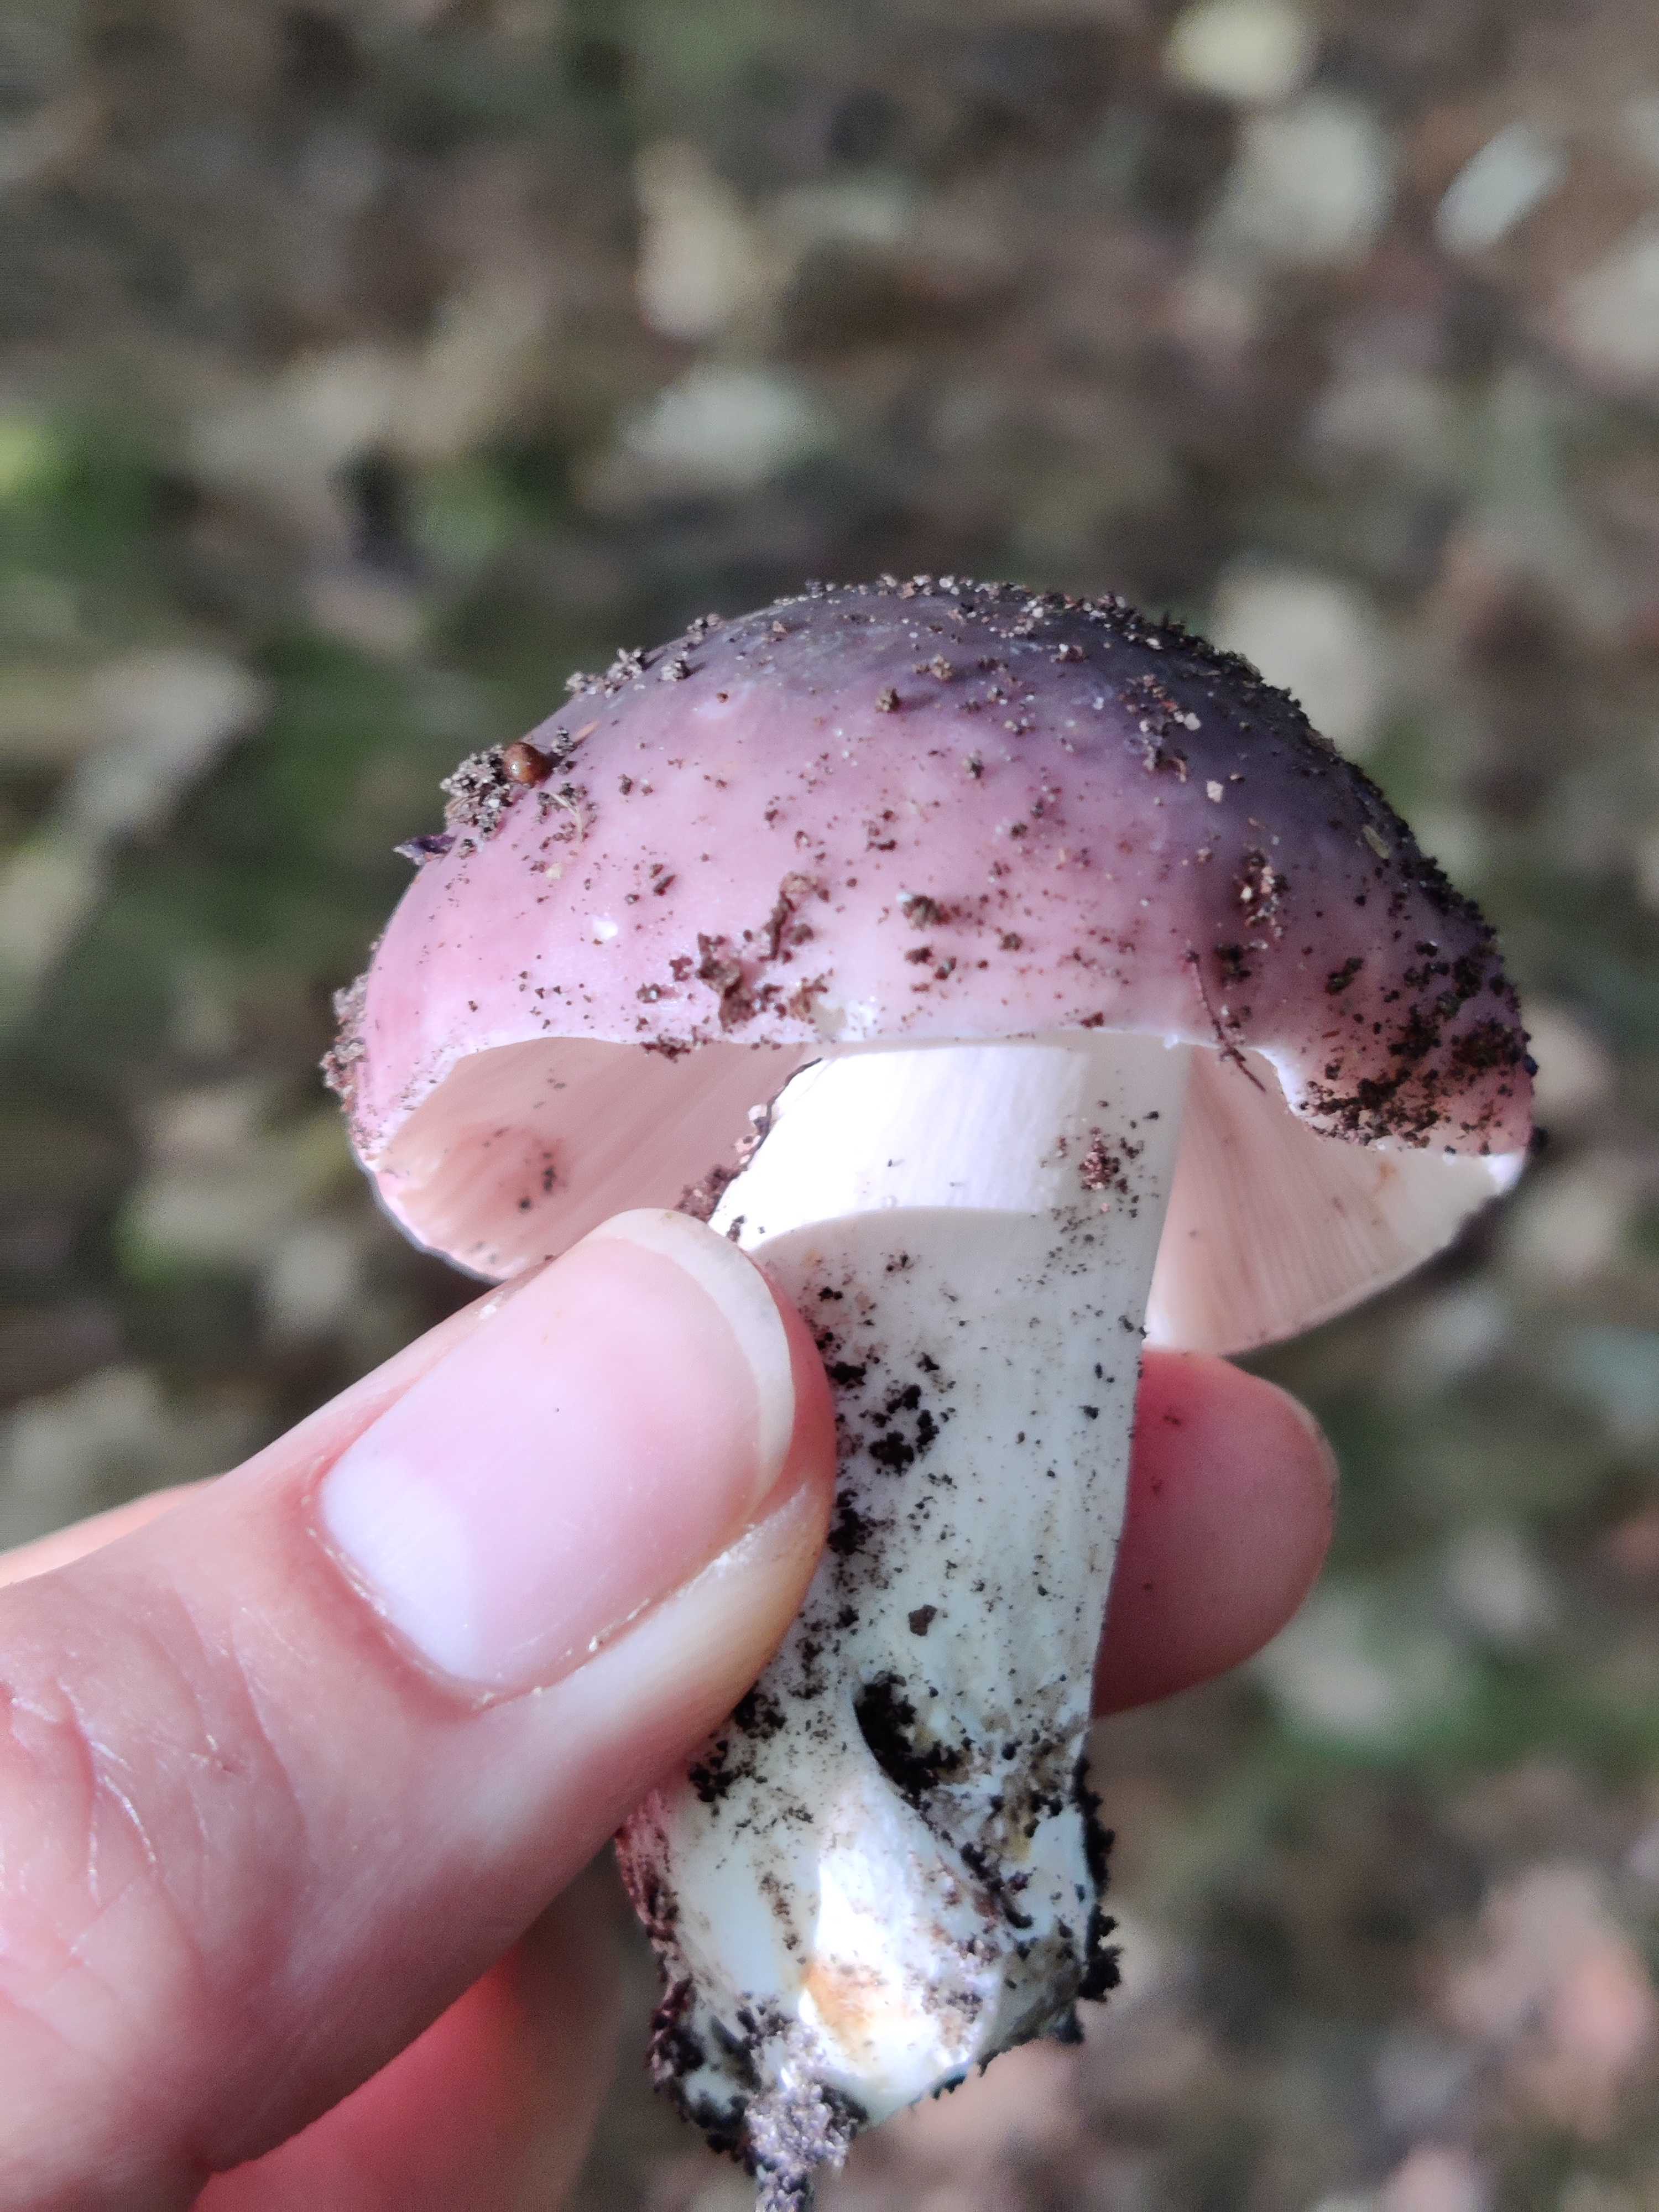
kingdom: Fungi
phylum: Basidiomycota
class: Agaricomycetes
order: Russulales
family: Russulaceae
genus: Russula
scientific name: Russula cyanoxantha
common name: broget skørhat
